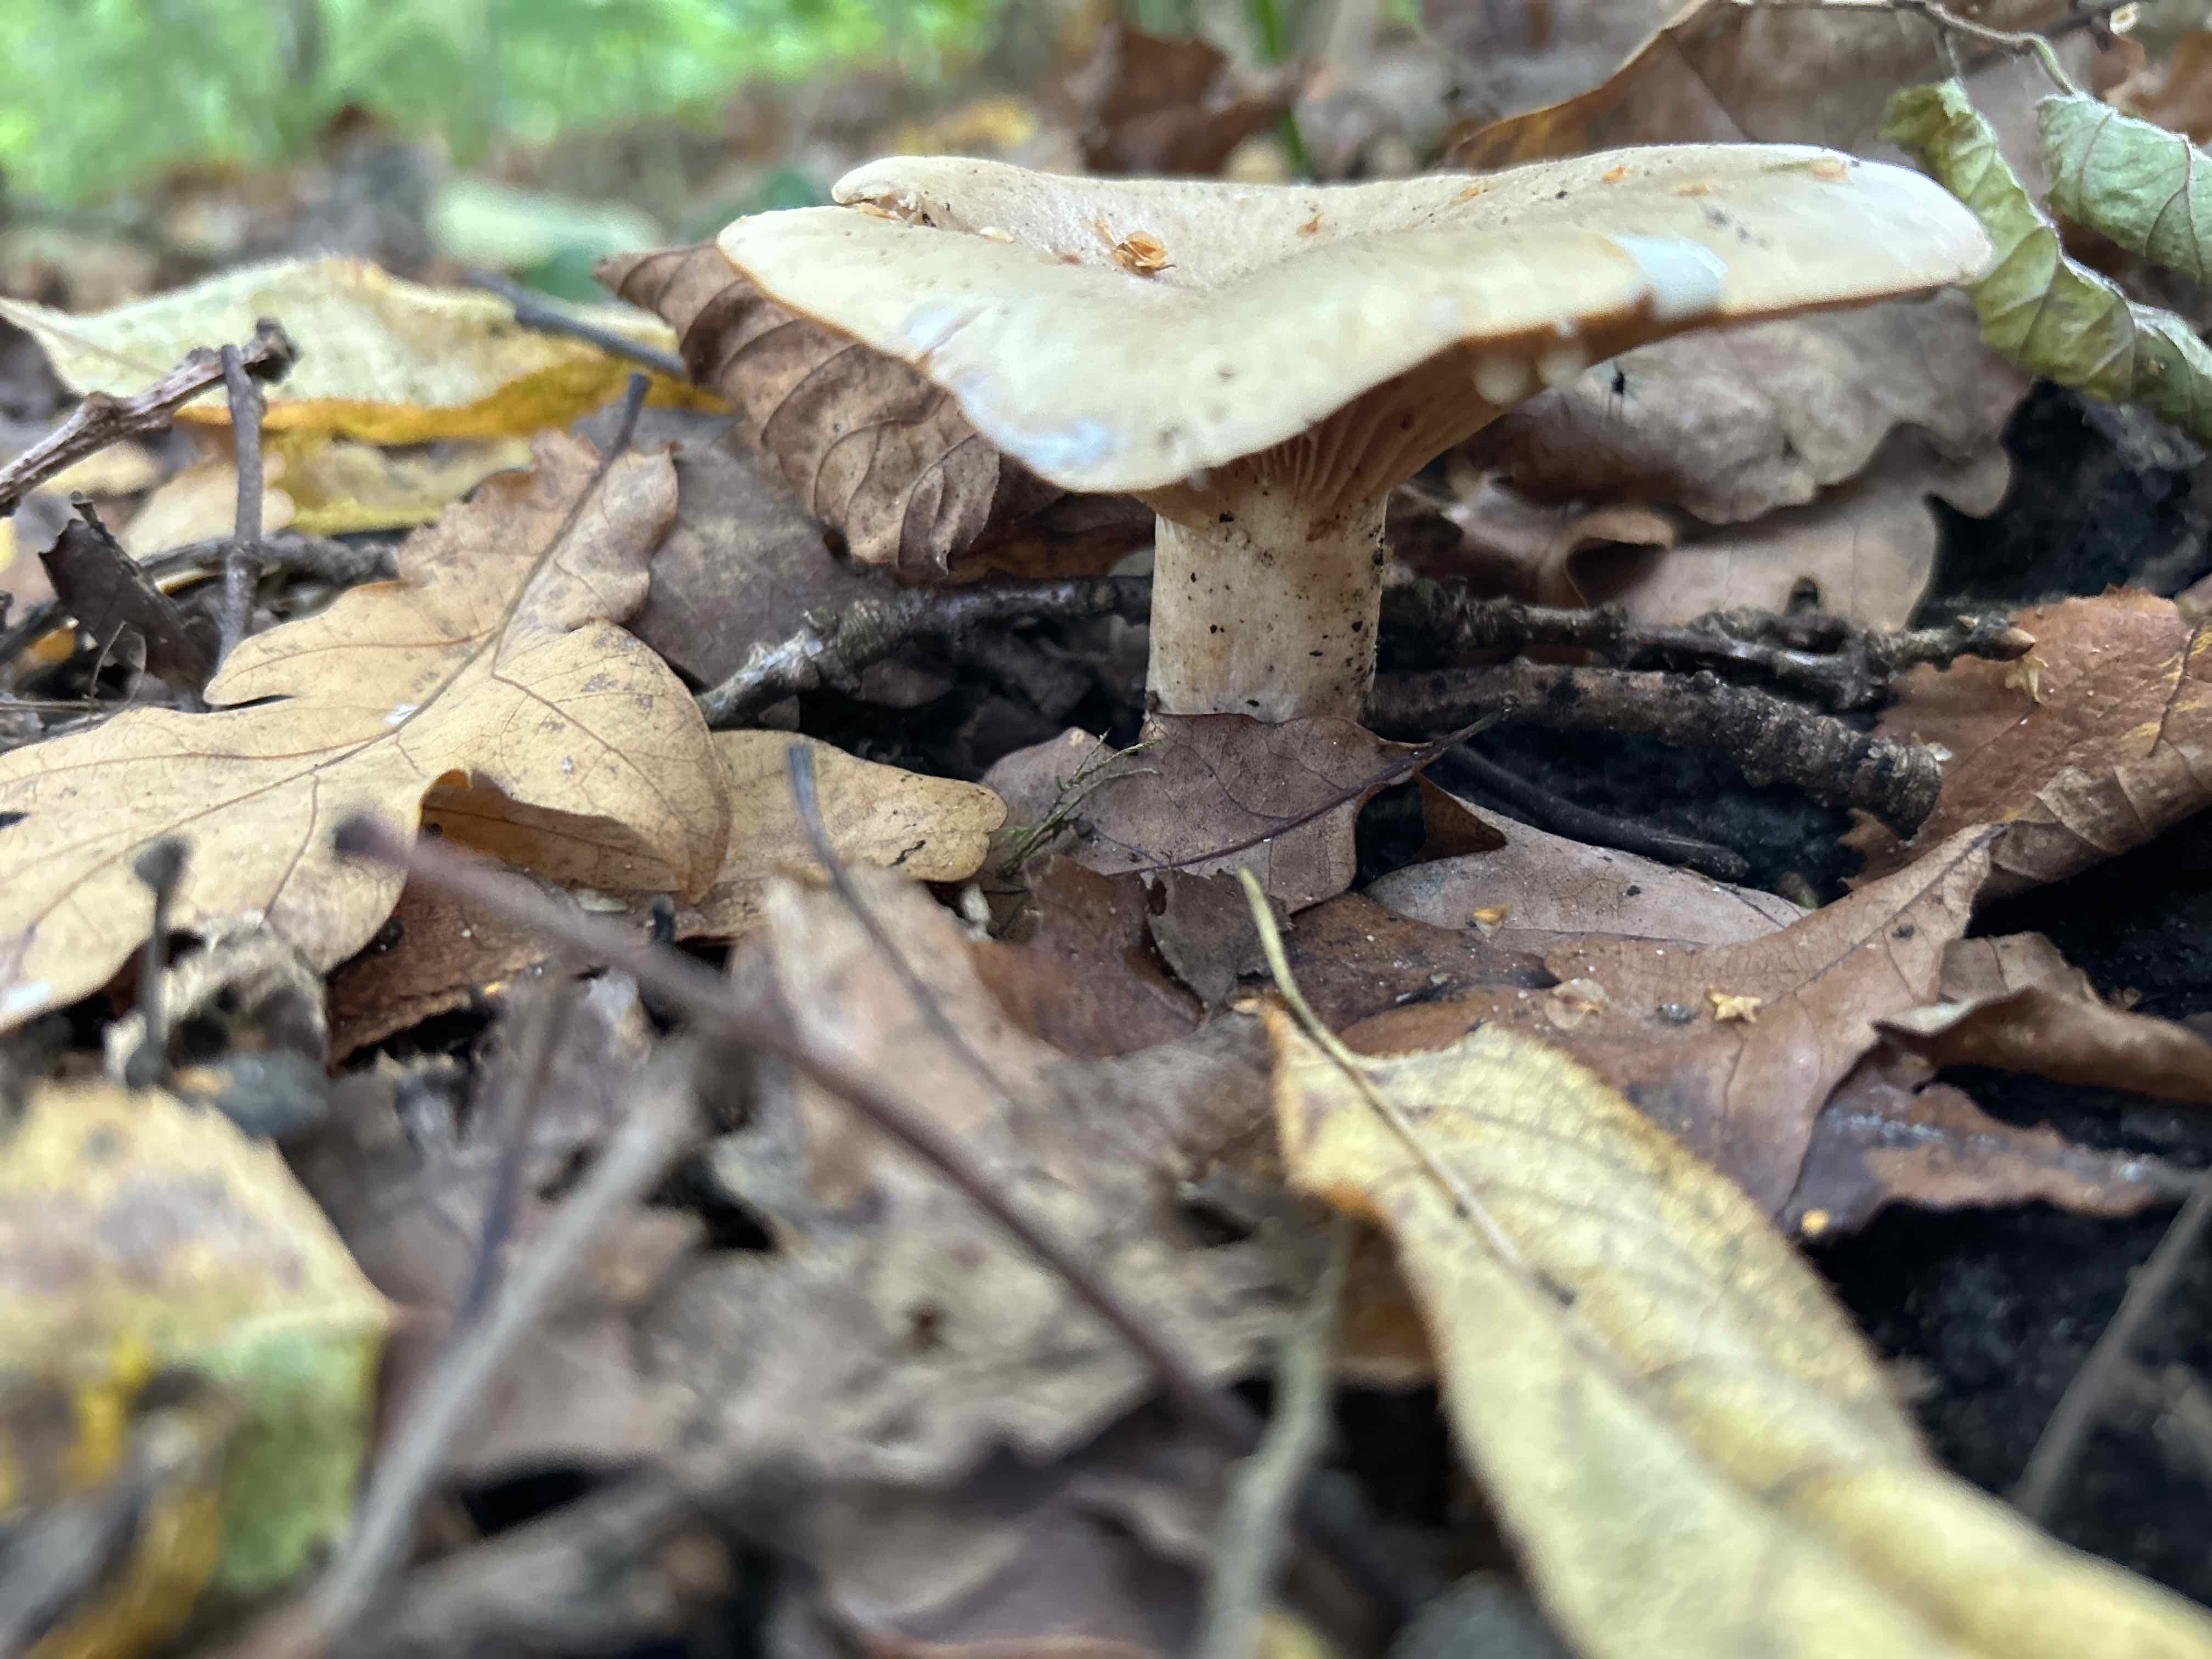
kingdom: Fungi
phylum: Basidiomycota
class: Agaricomycetes
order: Russulales
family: Russulaceae
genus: Lactarius
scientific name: Lactarius
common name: mælkehat
